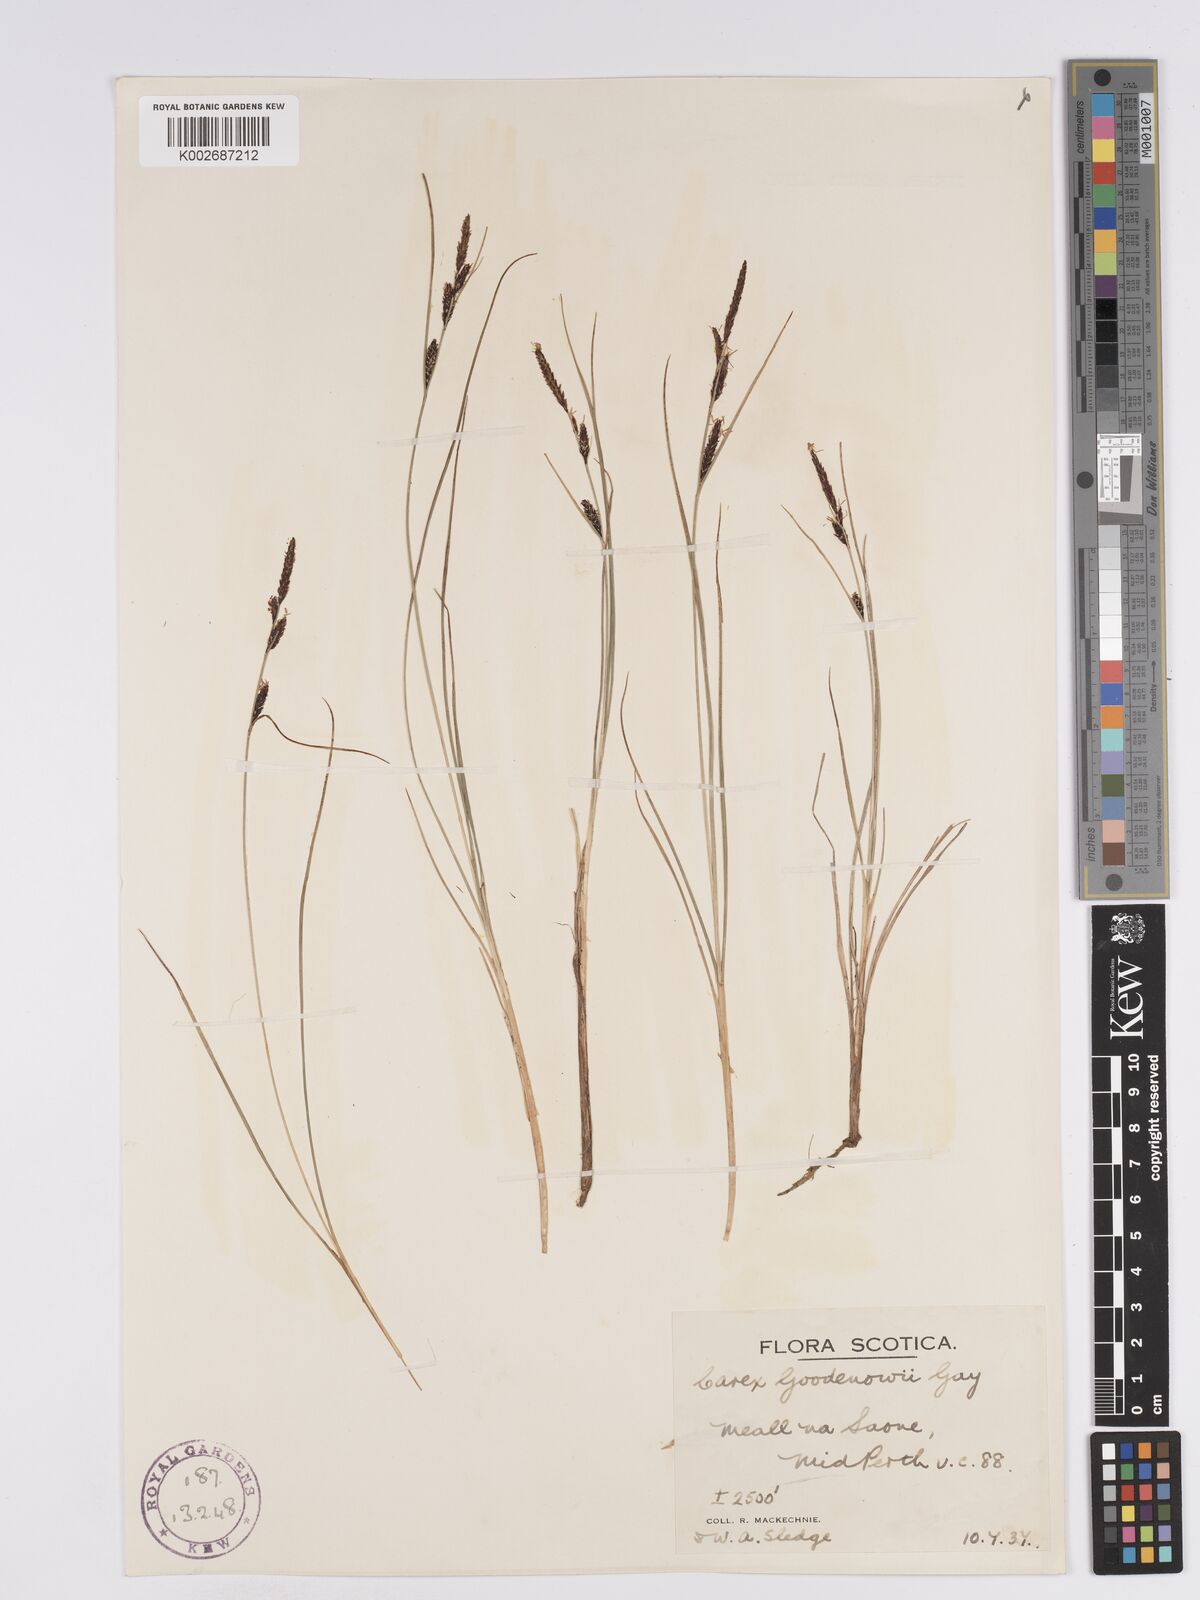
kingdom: Plantae
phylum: Tracheophyta
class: Liliopsida
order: Poales
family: Cyperaceae
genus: Carex
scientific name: Carex nigra
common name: Common sedge
